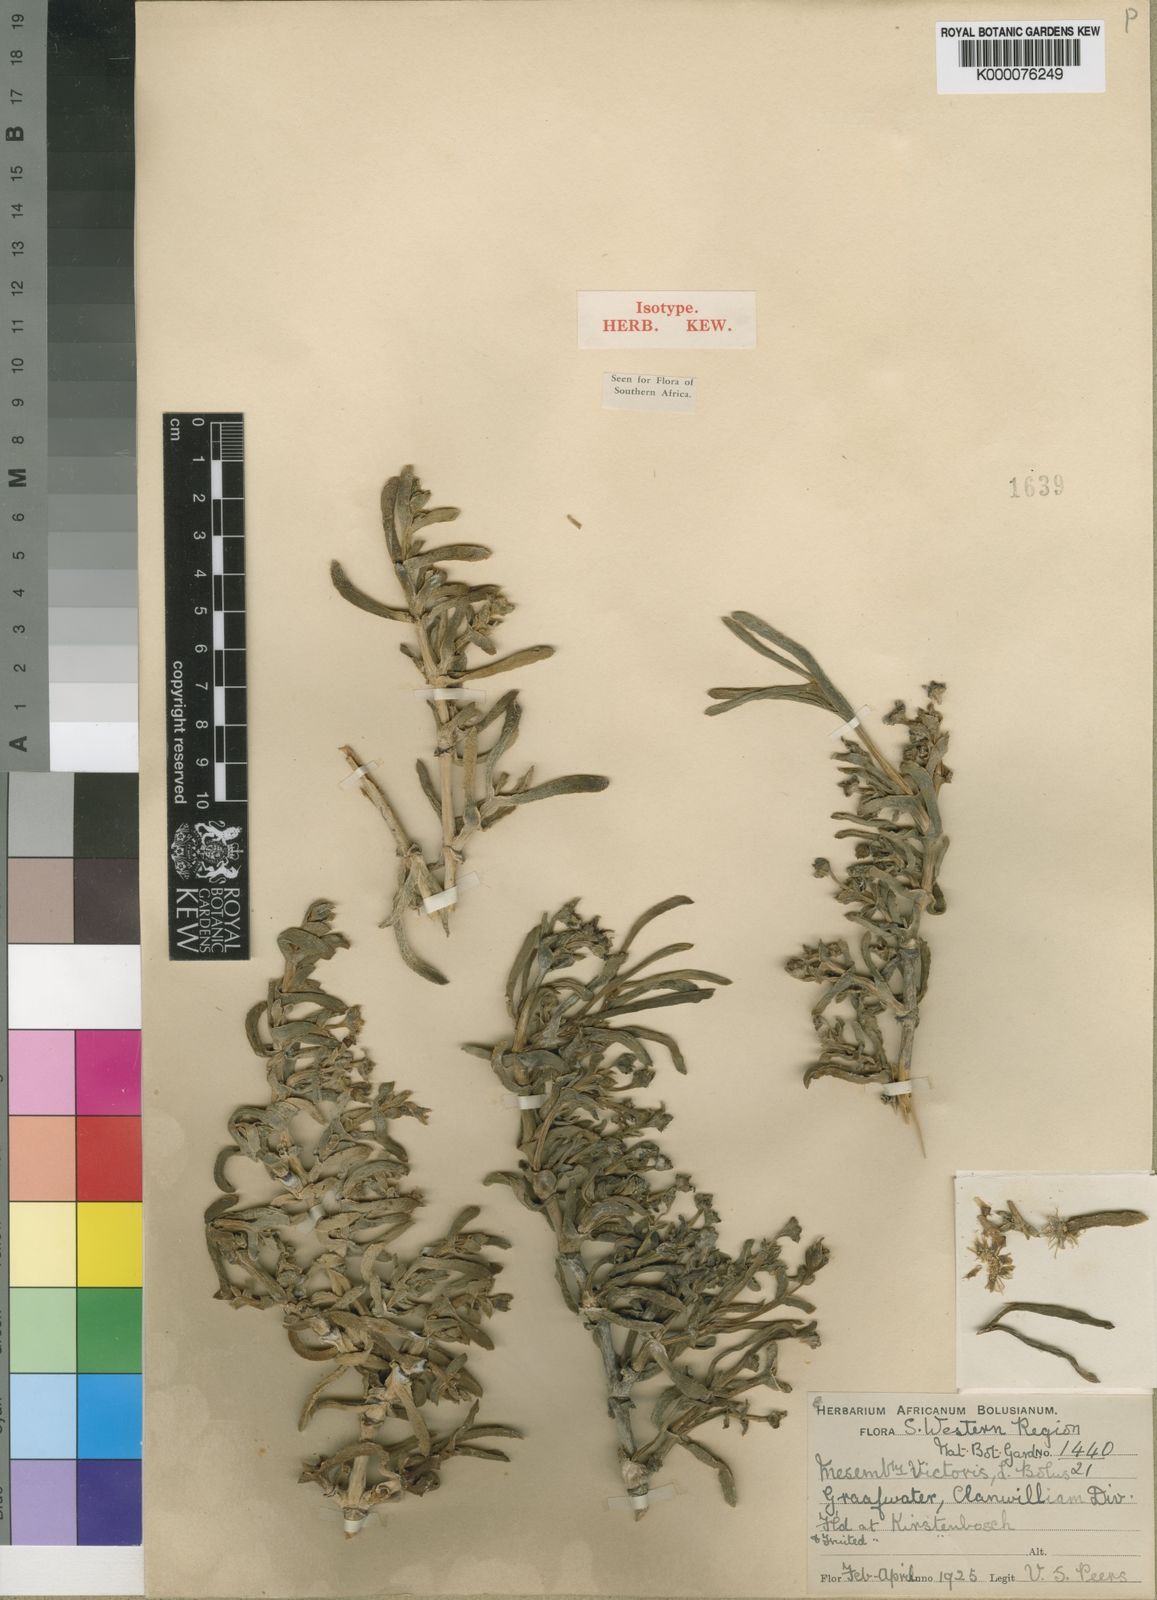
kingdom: Plantae
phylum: Tracheophyta
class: Magnoliopsida
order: Caryophyllales
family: Aizoaceae
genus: Ruschia
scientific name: Ruschia victoris
